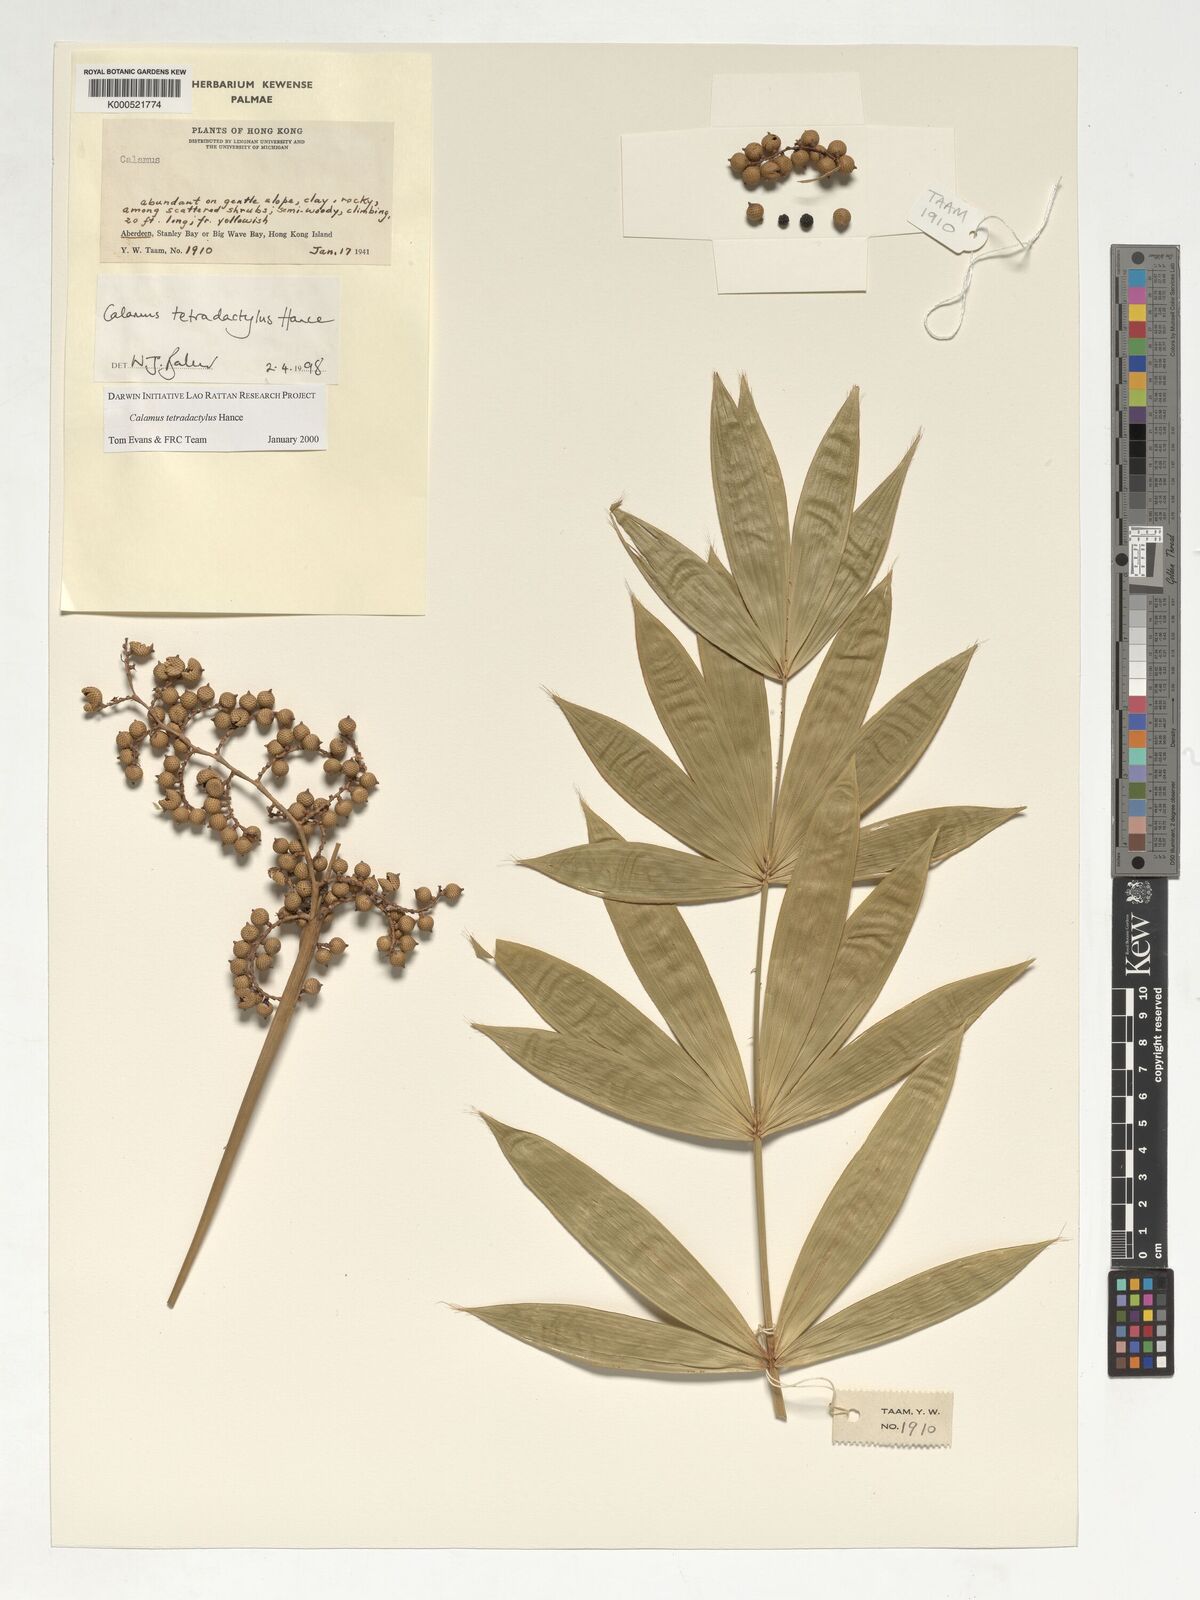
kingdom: Plantae
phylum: Tracheophyta
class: Liliopsida
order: Arecales
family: Arecaceae
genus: Calamus
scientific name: Calamus tetradactylus
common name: White rattan
